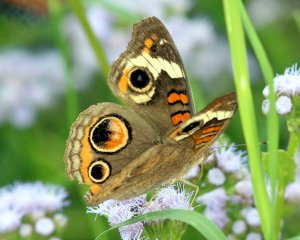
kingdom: Animalia
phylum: Arthropoda
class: Insecta
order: Lepidoptera
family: Nymphalidae
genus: Junonia
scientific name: Junonia coenia
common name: Common Buckeye
